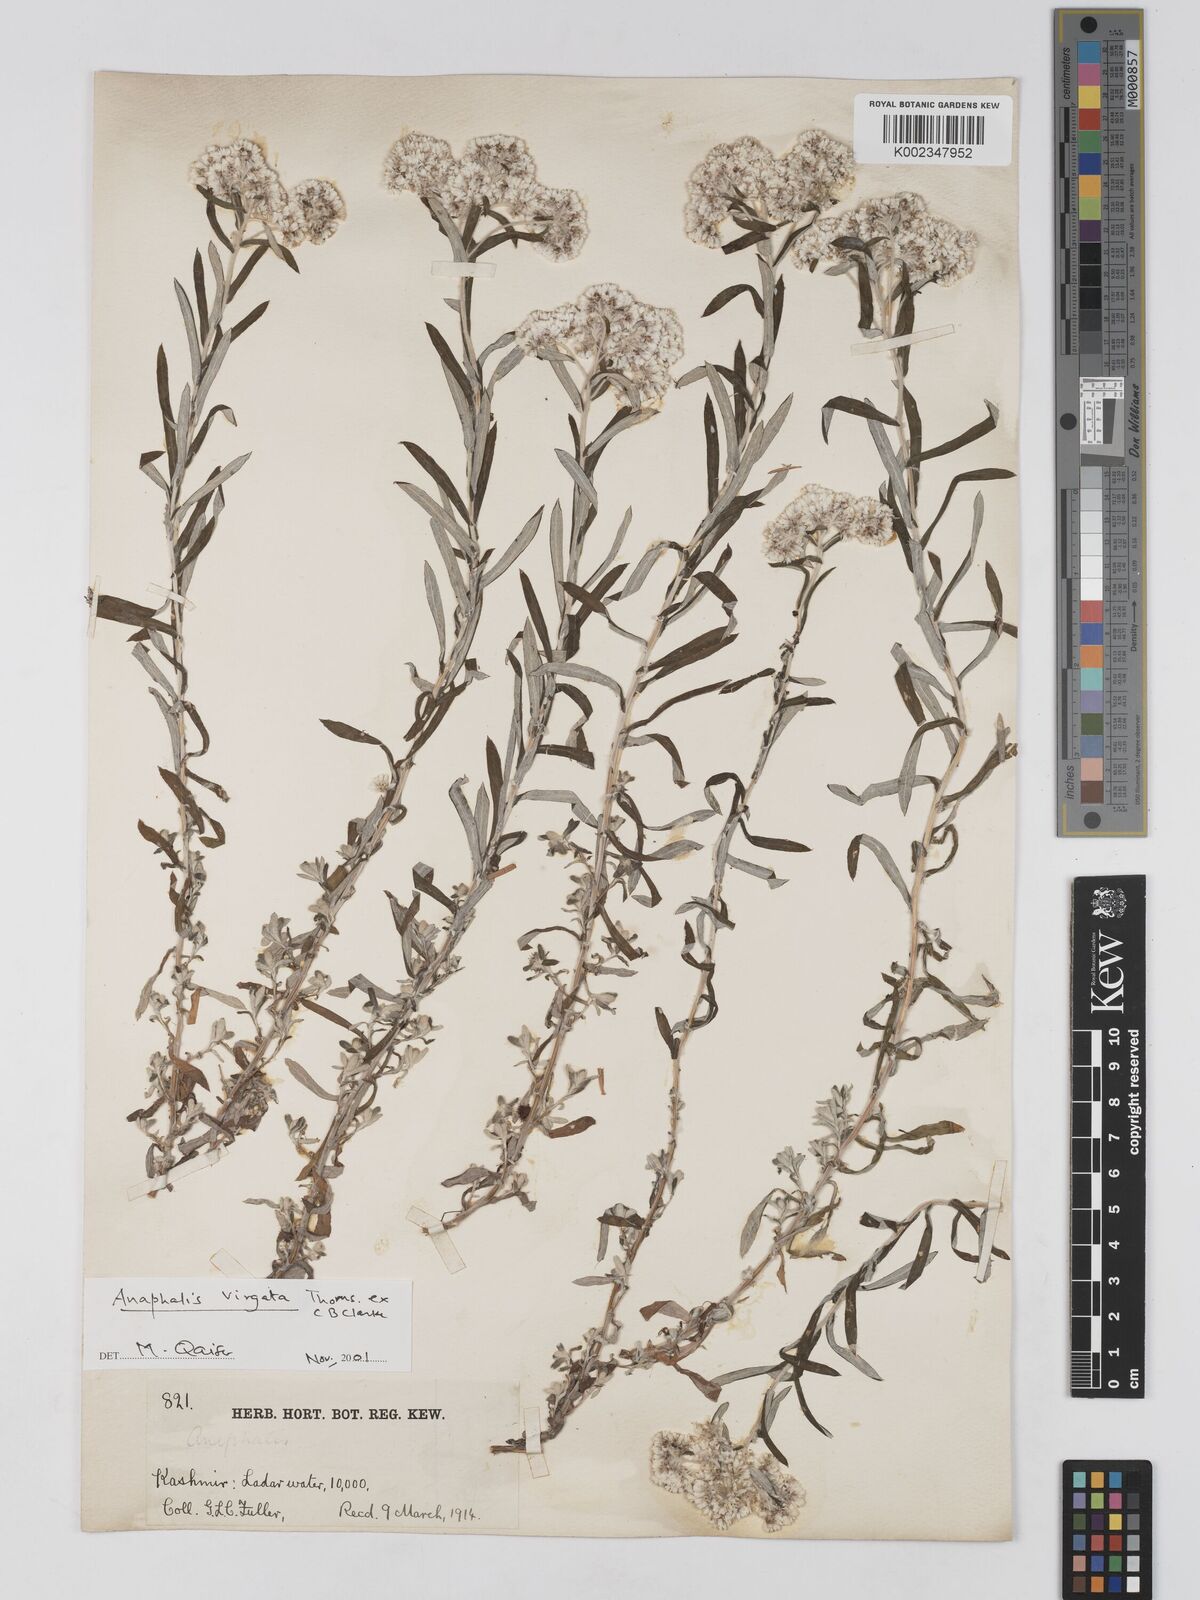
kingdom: Plantae
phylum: Tracheophyta
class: Magnoliopsida
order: Asterales
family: Asteraceae
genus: Anaphalis
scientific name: Anaphalis
